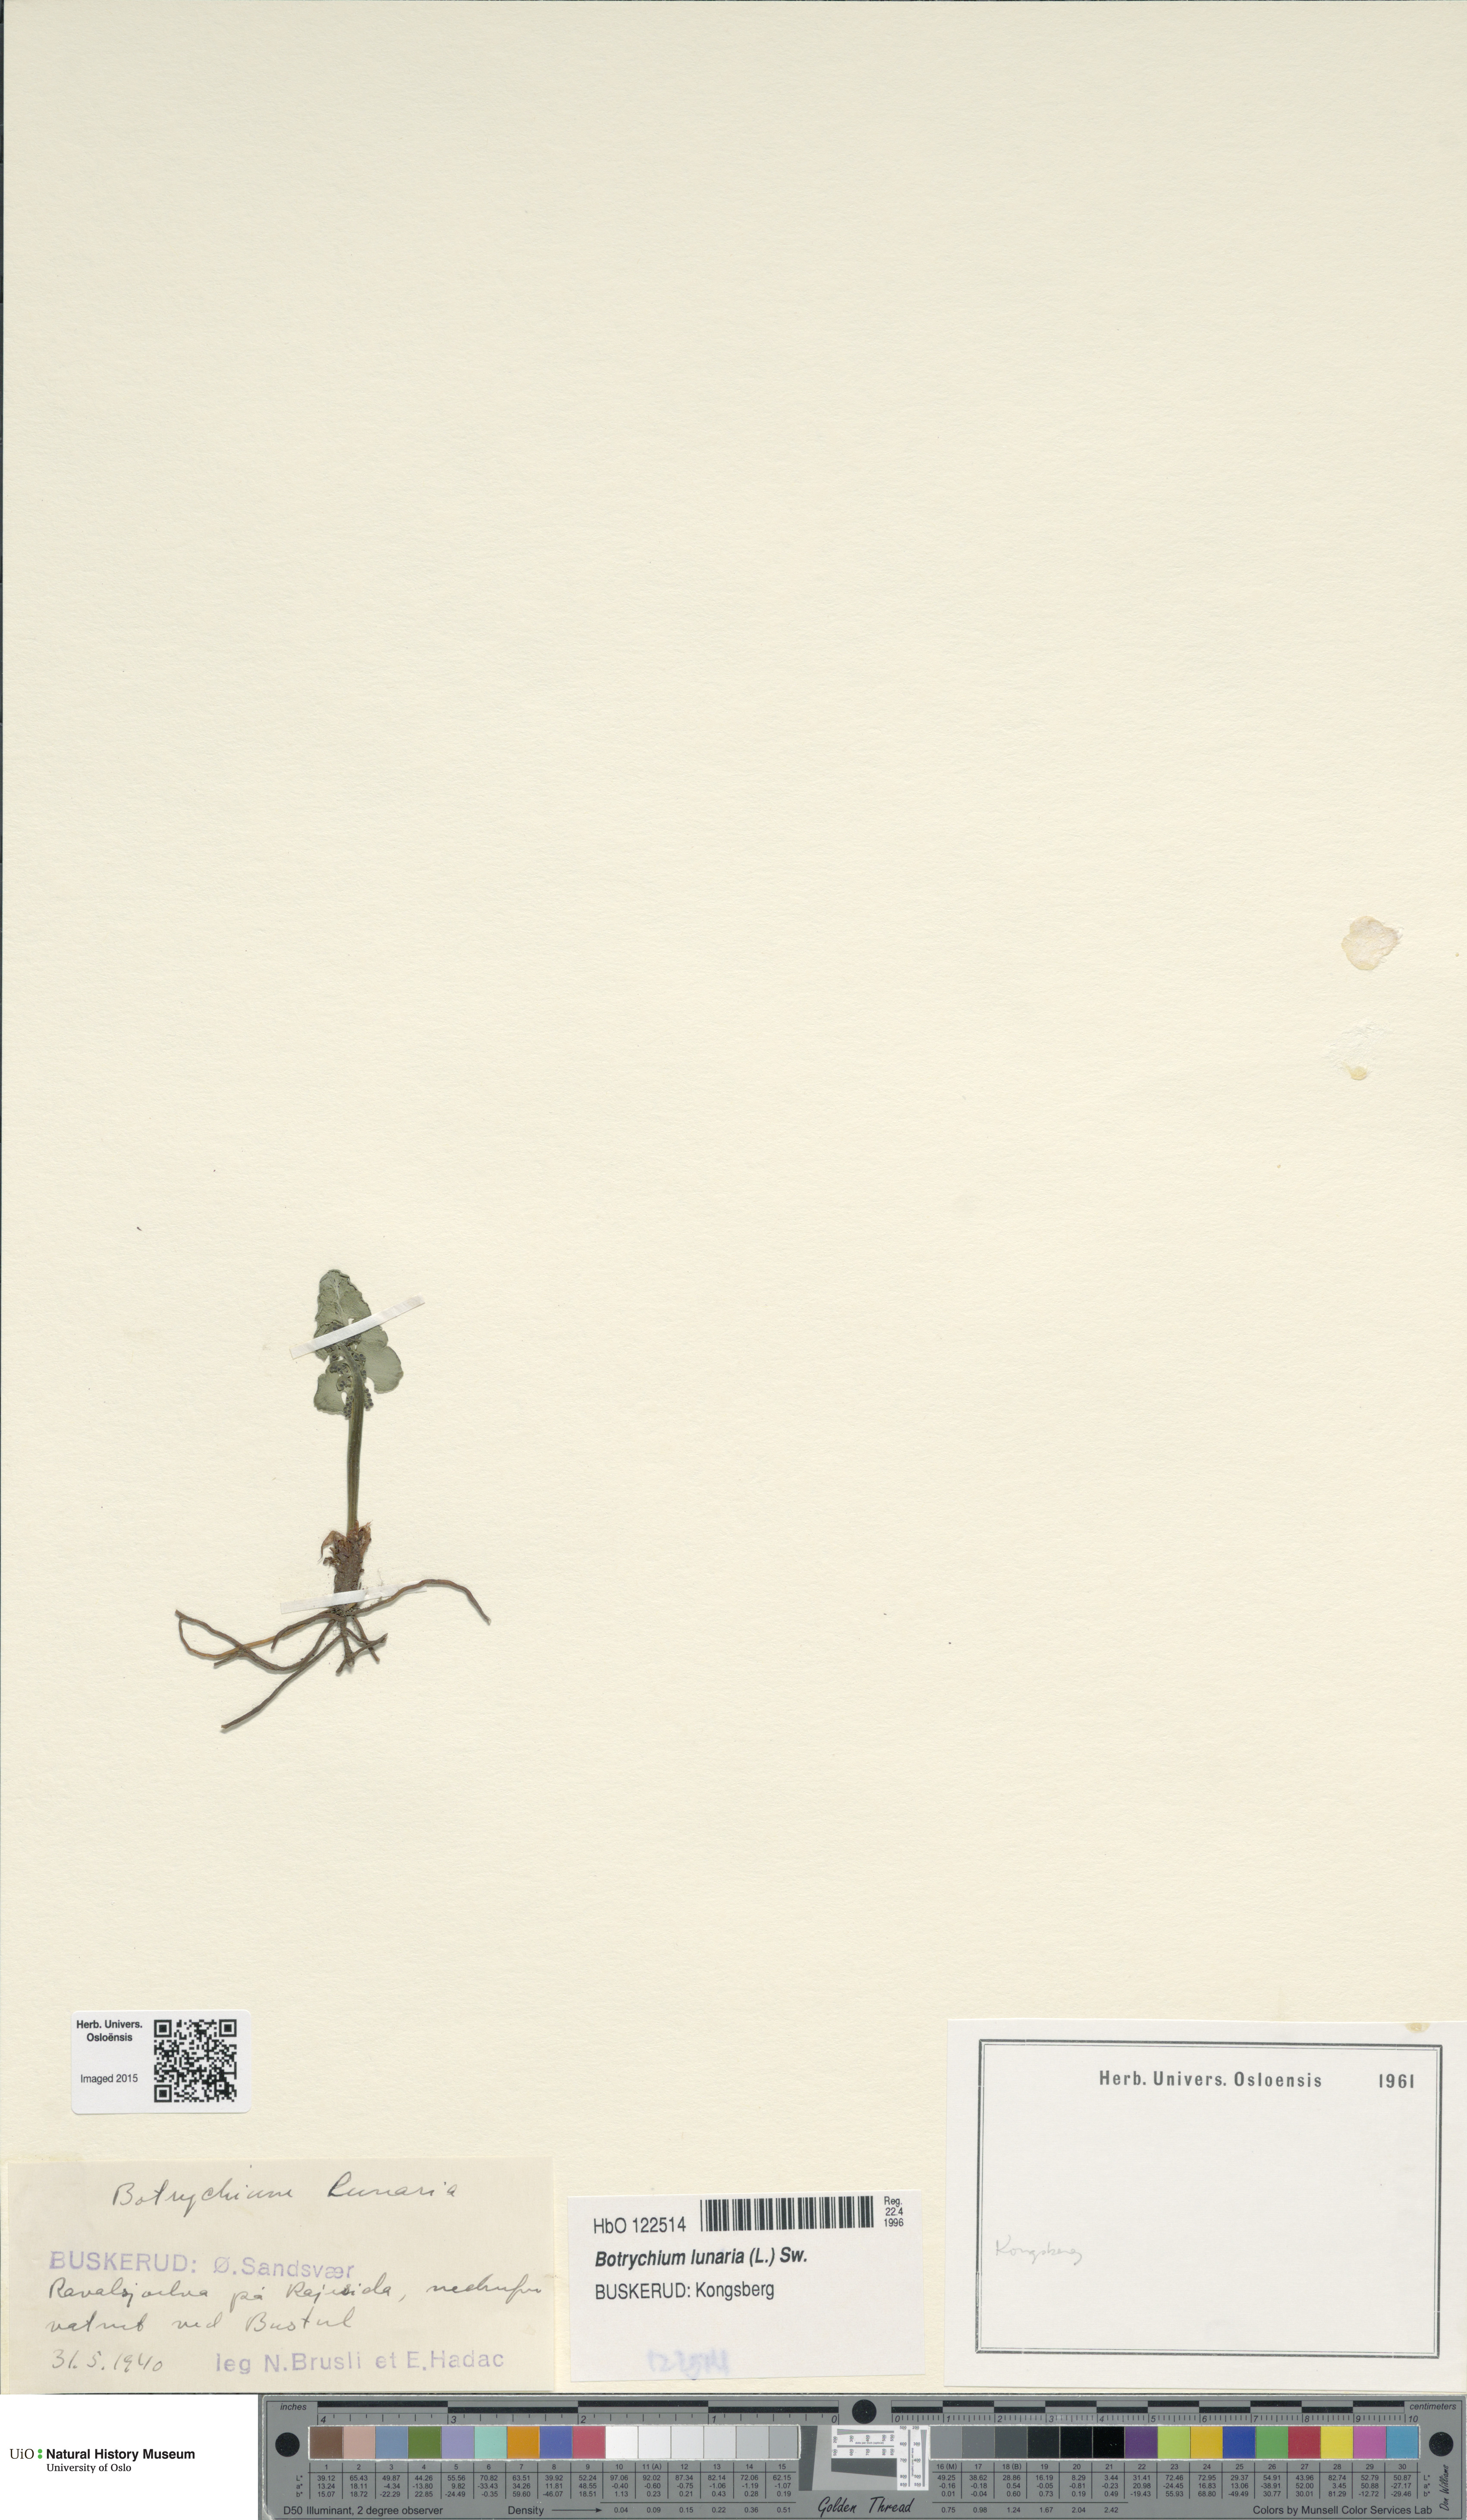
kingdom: Plantae
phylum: Tracheophyta
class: Polypodiopsida
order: Ophioglossales
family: Ophioglossaceae
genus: Botrychium
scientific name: Botrychium lunaria
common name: Moonwort
